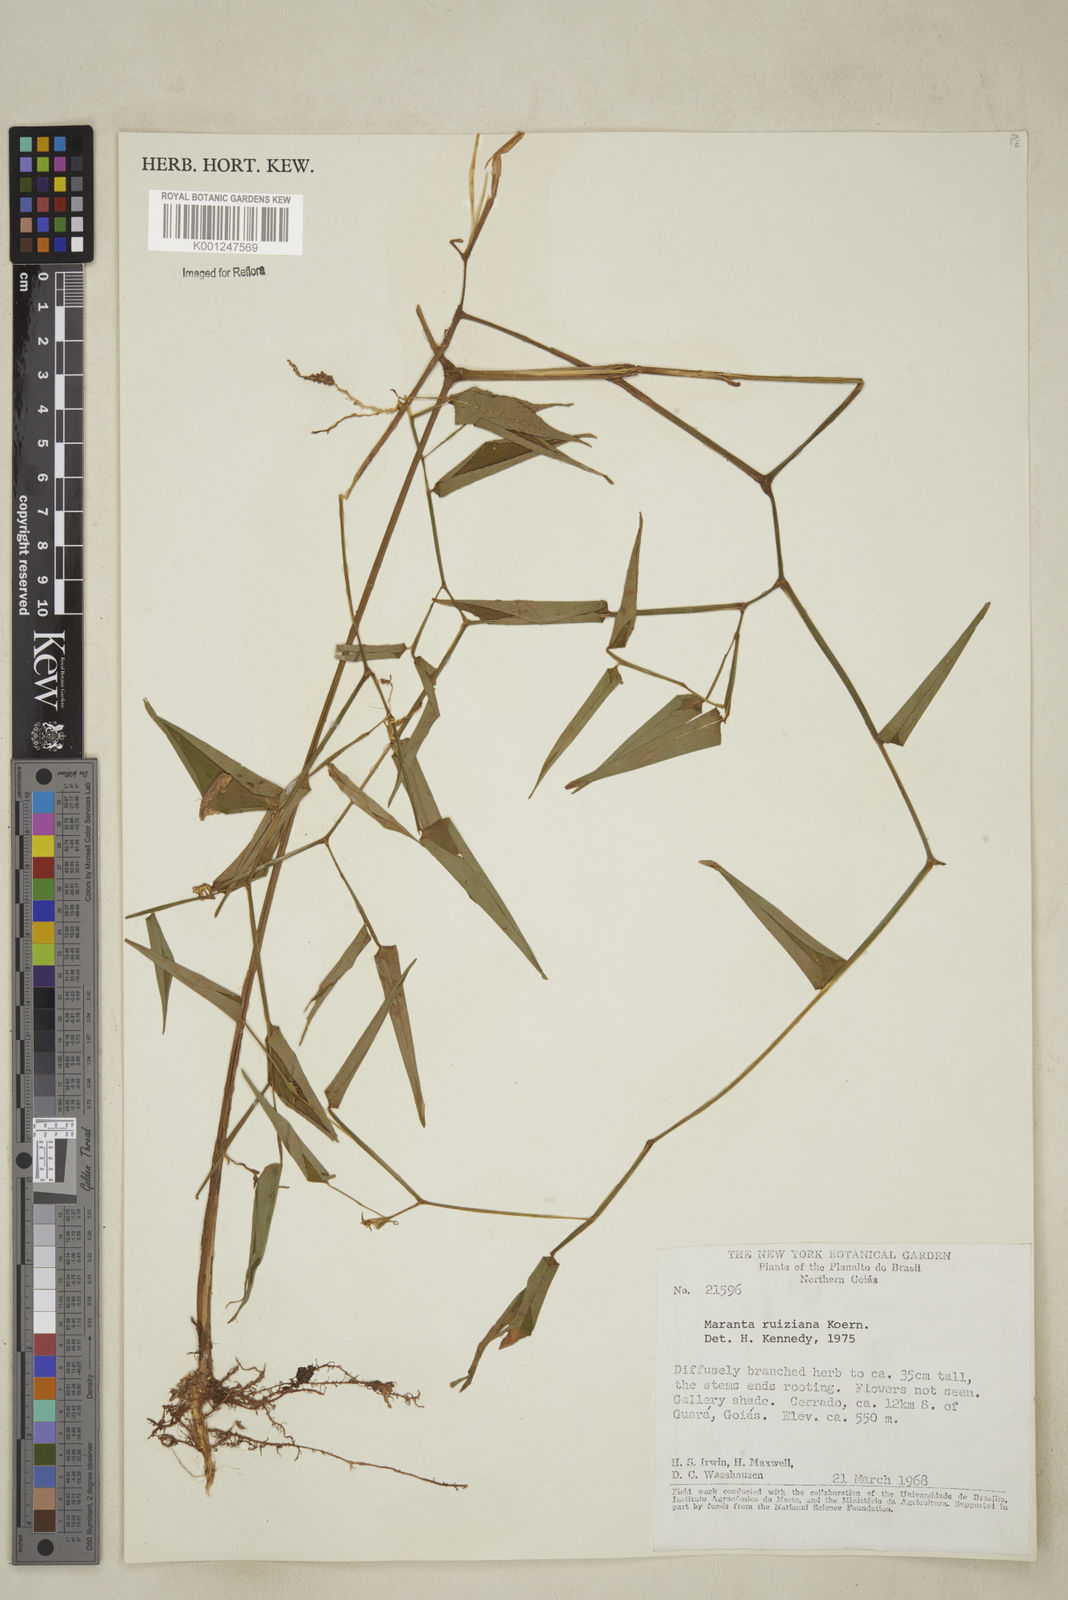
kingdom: Plantae
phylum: Tracheophyta
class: Liliopsida
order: Zingiberales
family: Marantaceae
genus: Maranta
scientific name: Maranta ruiziana
